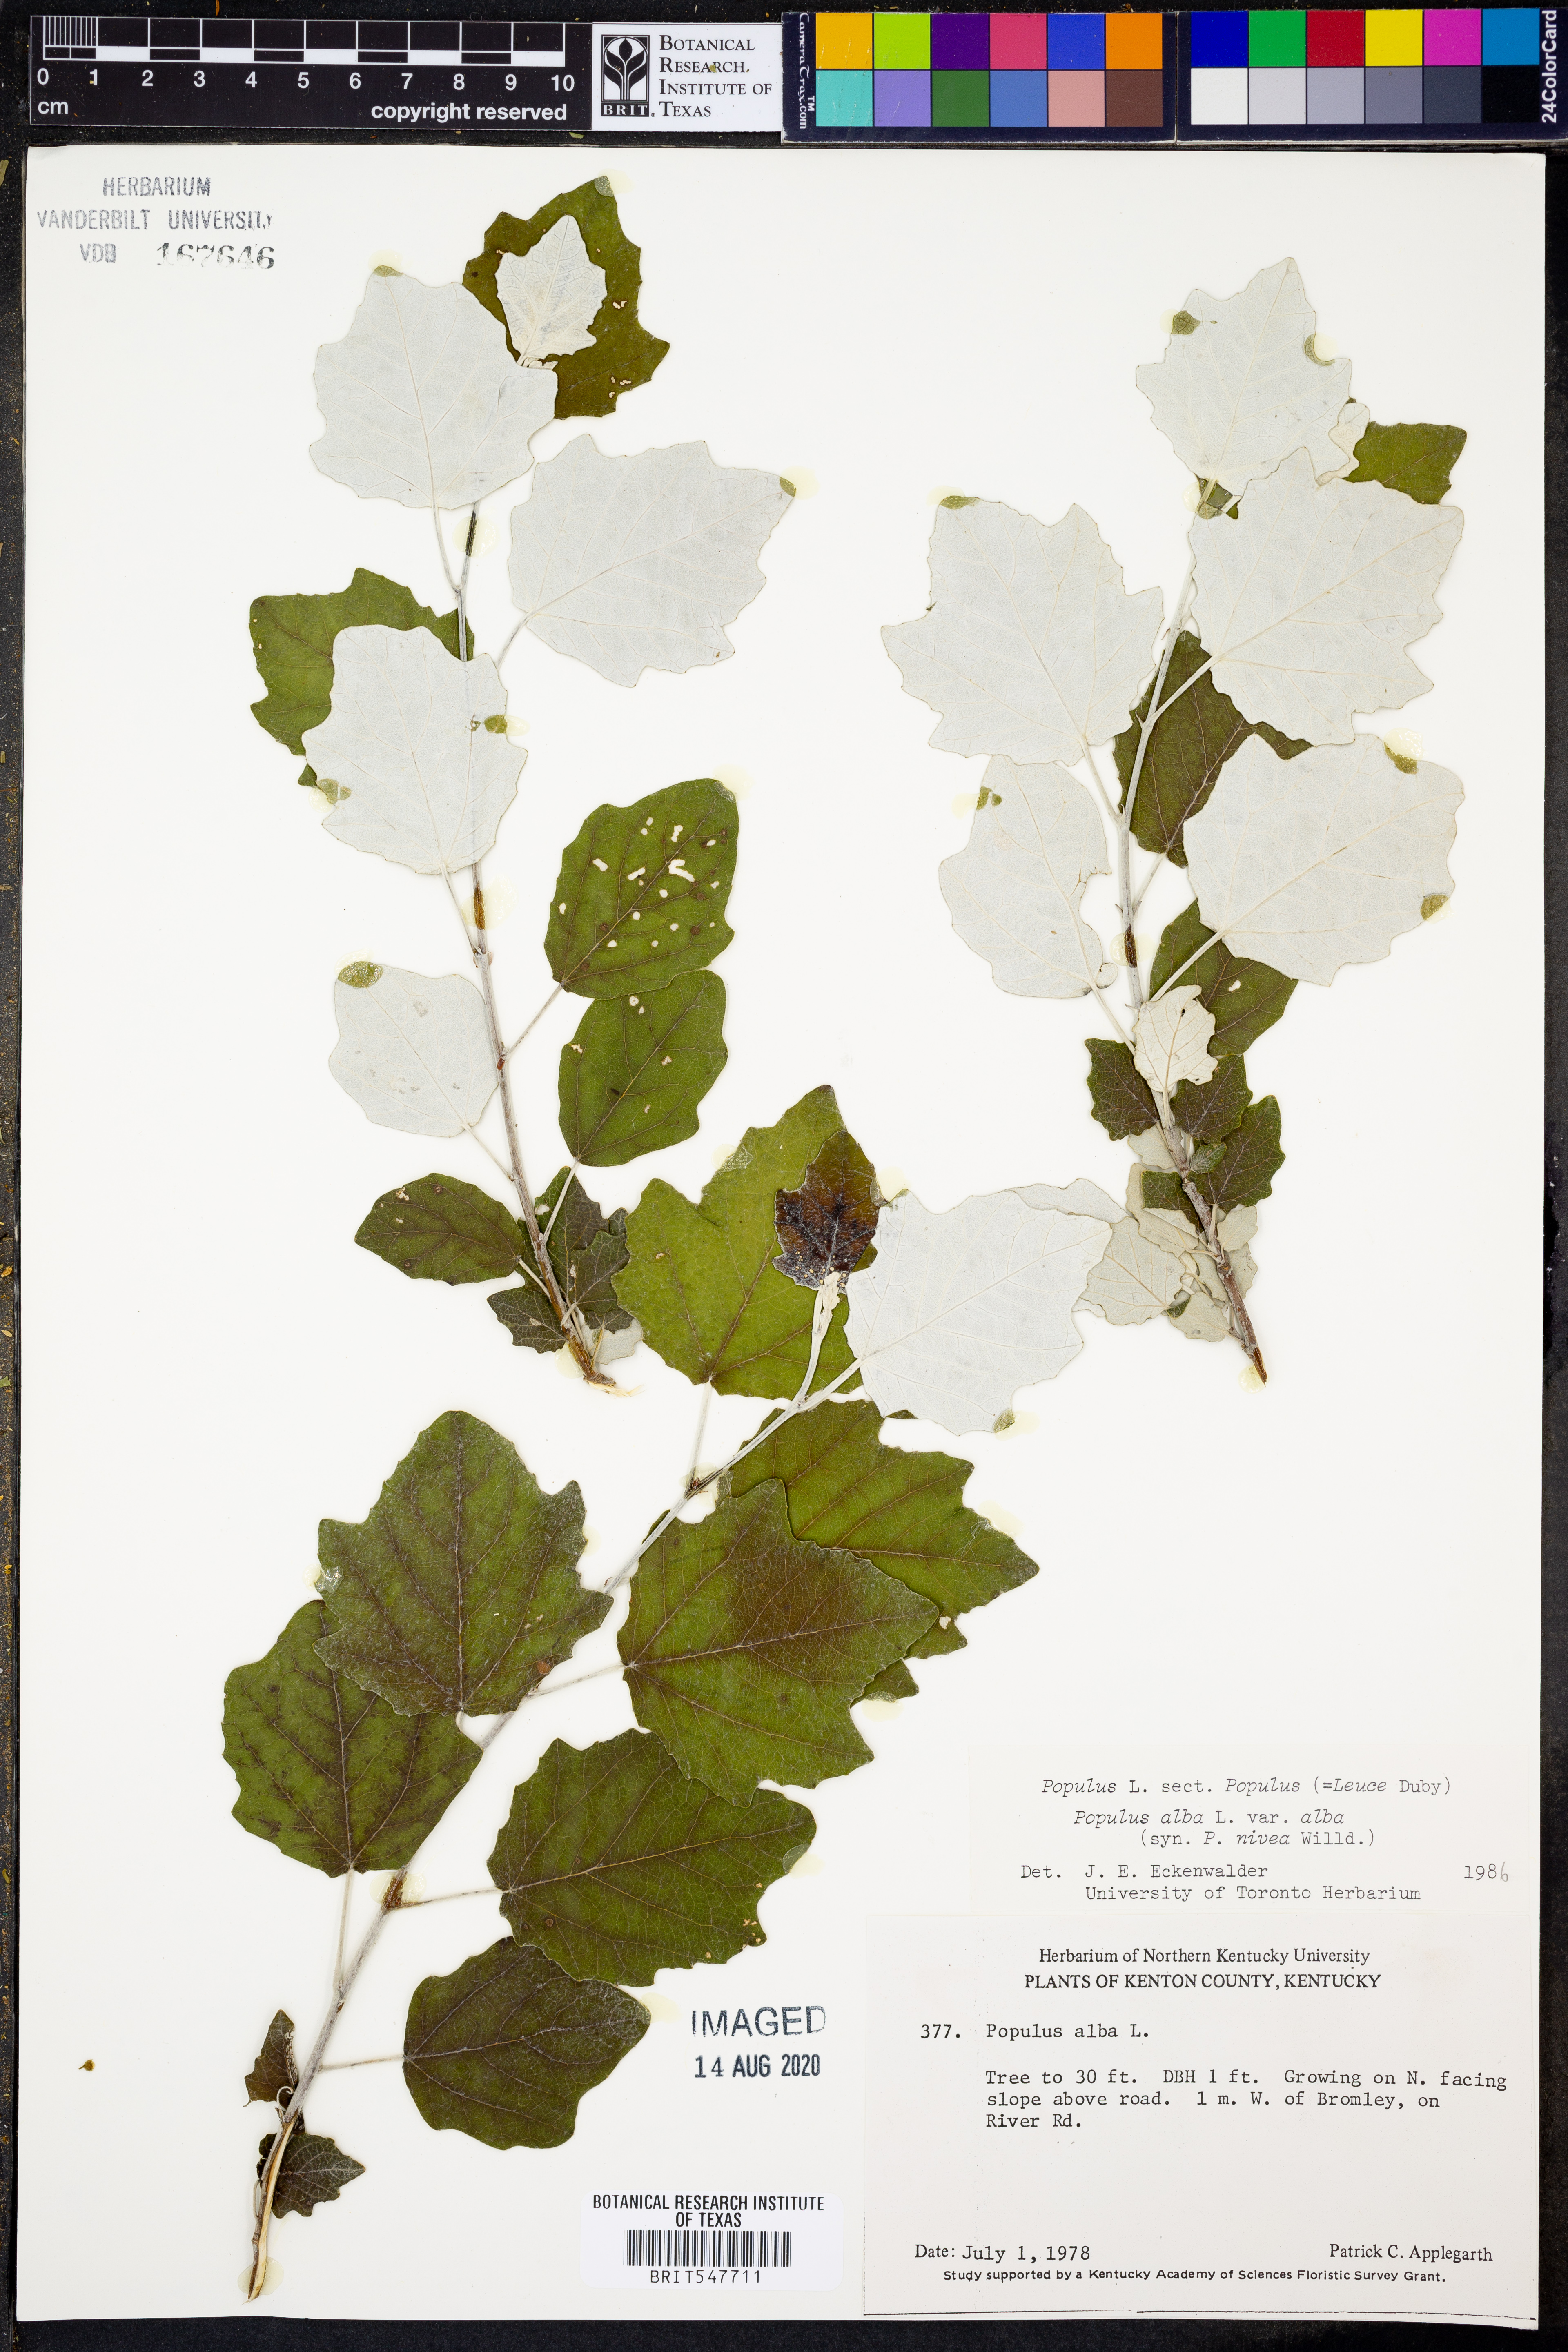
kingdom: Plantae
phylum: Tracheophyta
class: Magnoliopsida
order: Malpighiales
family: Salicaceae
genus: Populus
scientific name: Populus alba
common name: White poplar
